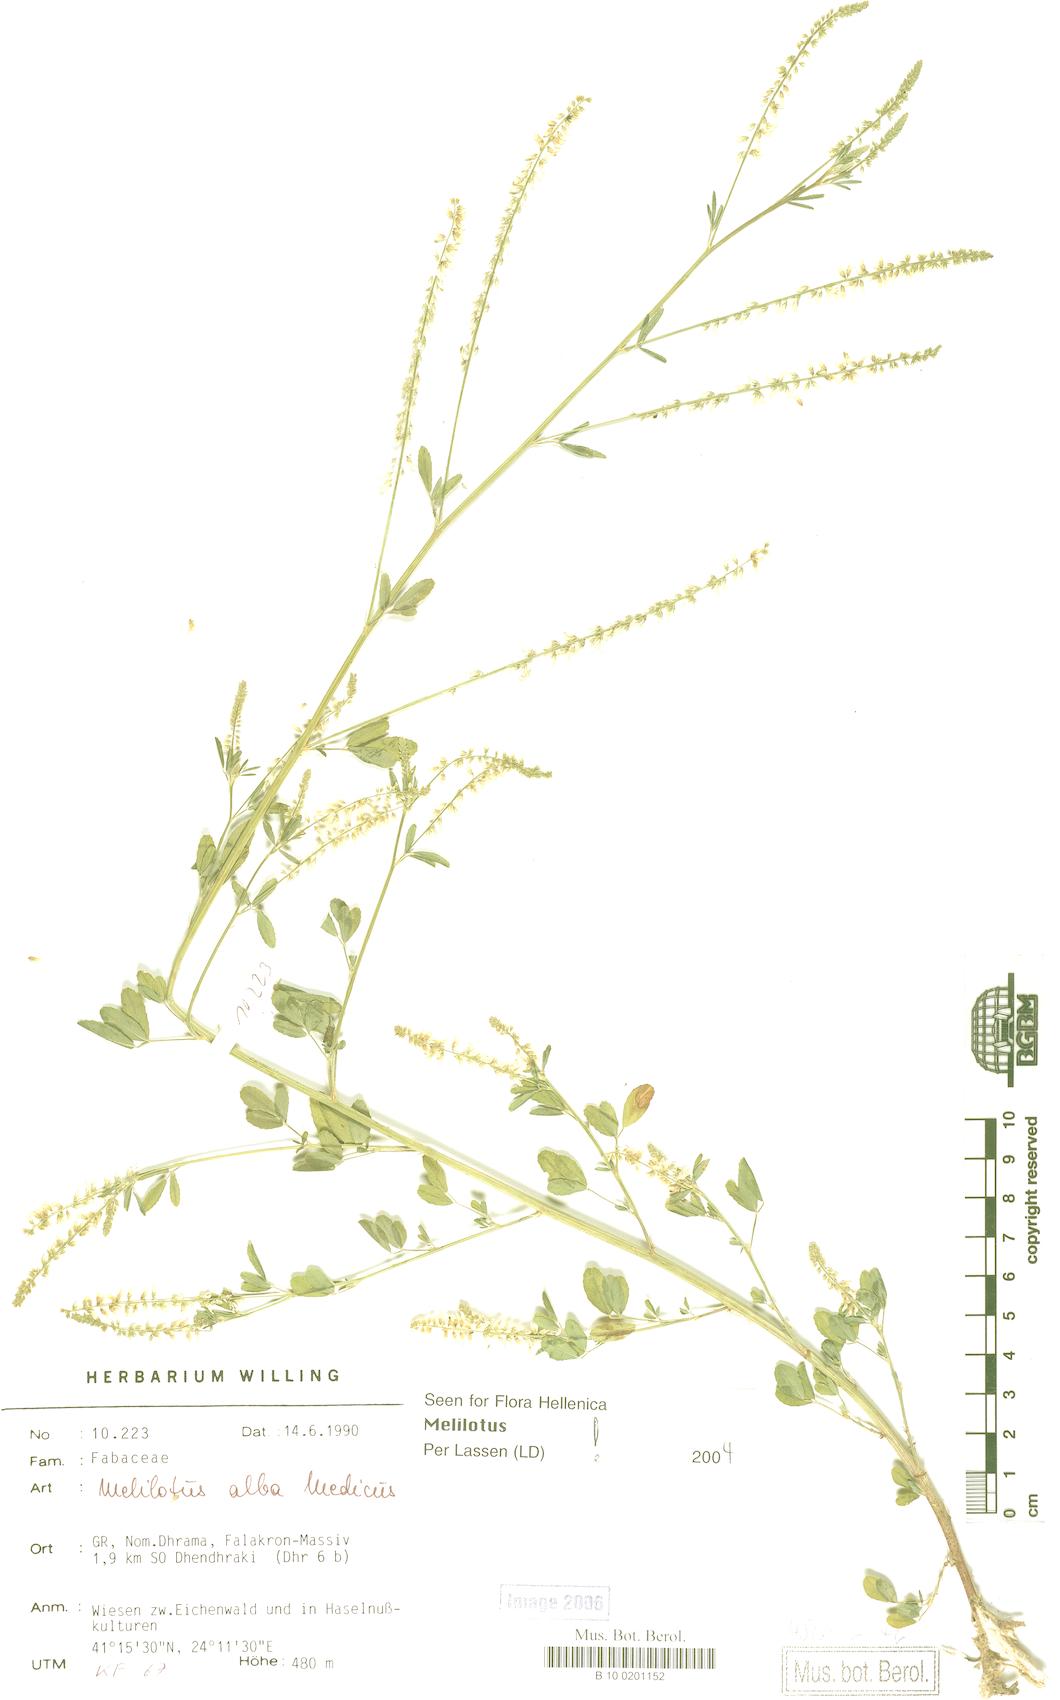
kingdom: Plantae
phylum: Tracheophyta
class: Magnoliopsida
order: Fabales
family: Fabaceae
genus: Melilotus
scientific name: Melilotus albus
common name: White melilot
